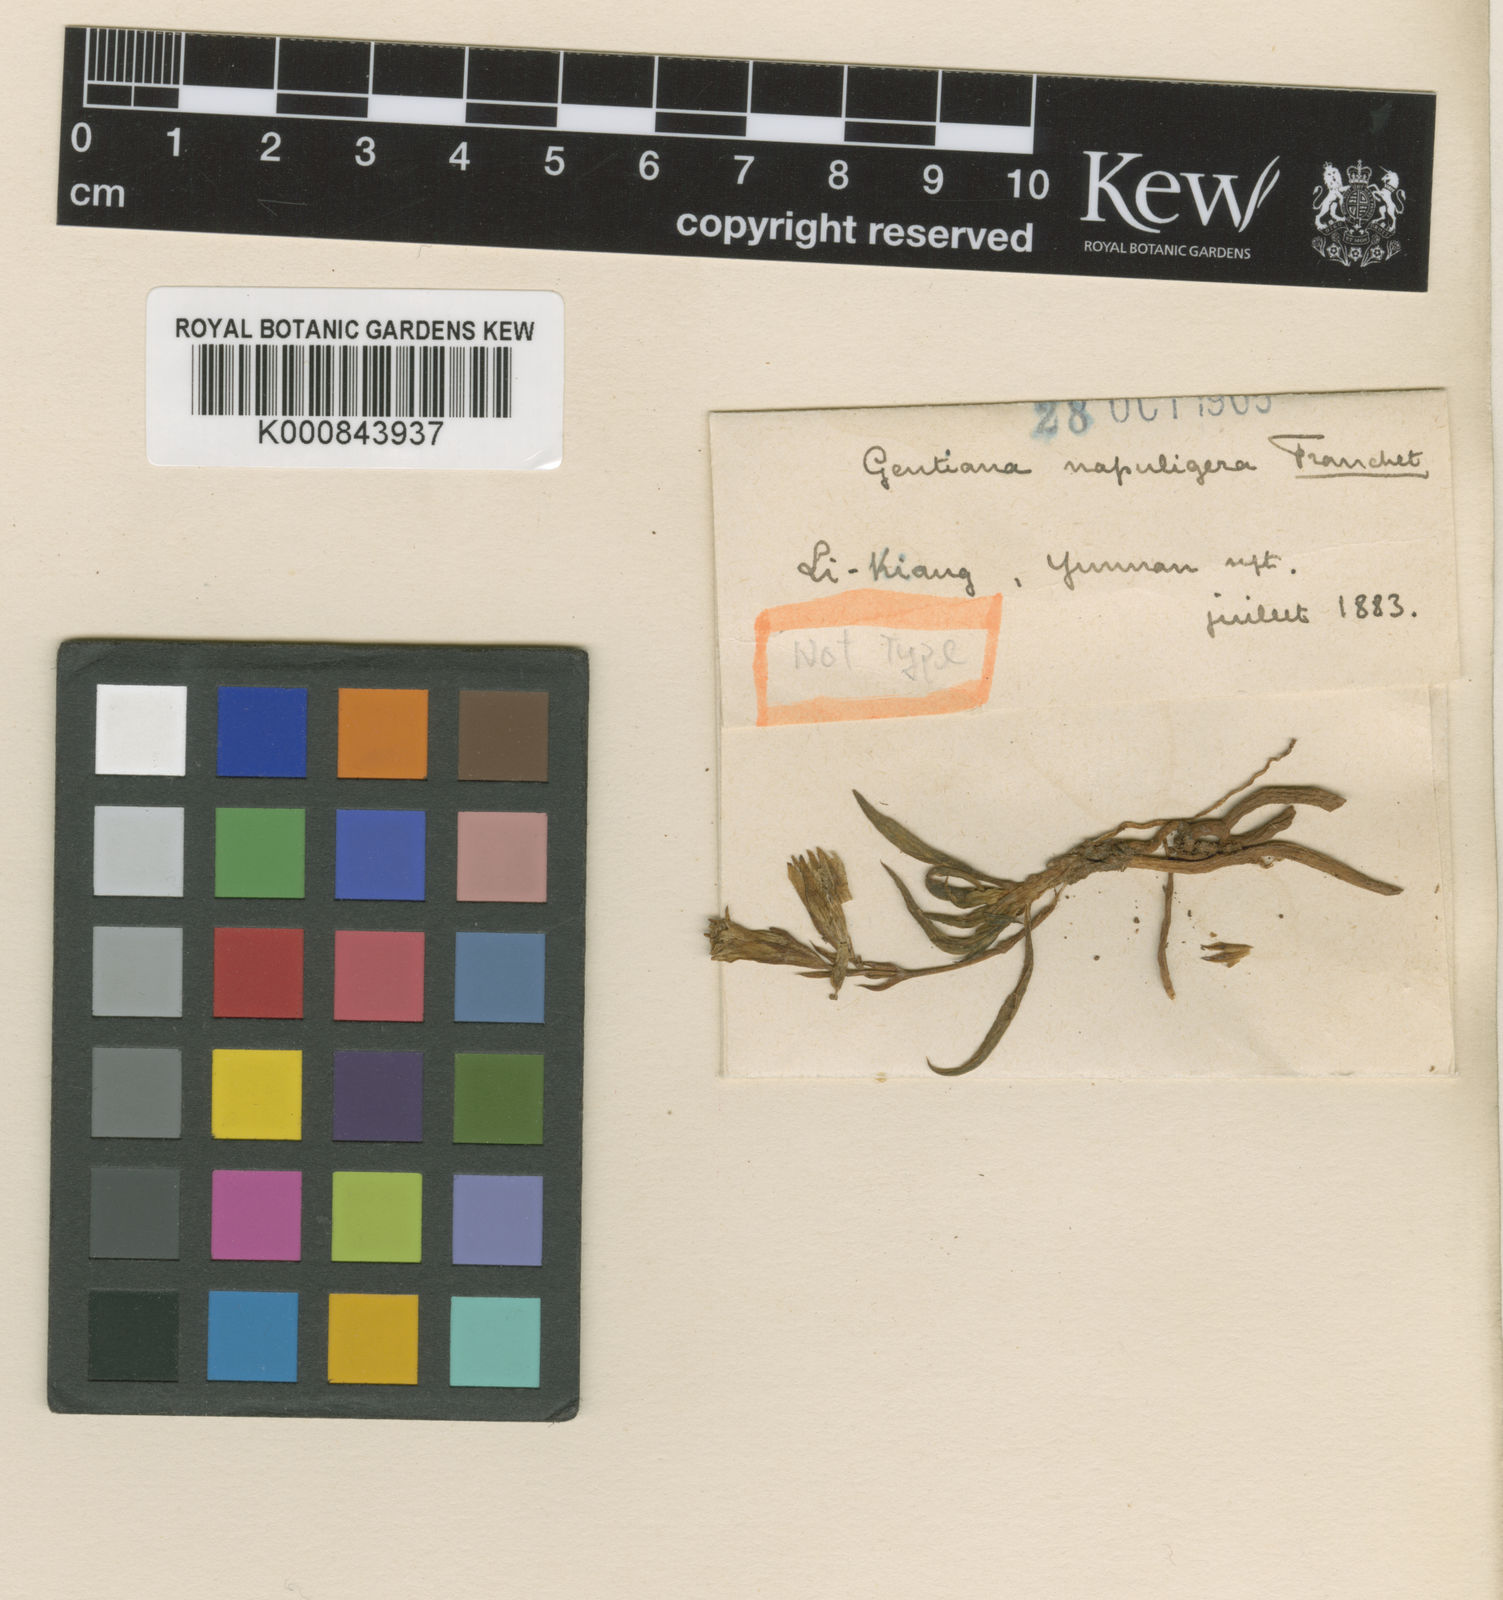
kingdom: Plantae
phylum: Tracheophyta
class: Magnoliopsida
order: Gentianales
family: Gentianaceae
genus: Gentiana
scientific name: Gentiana loureiroi
